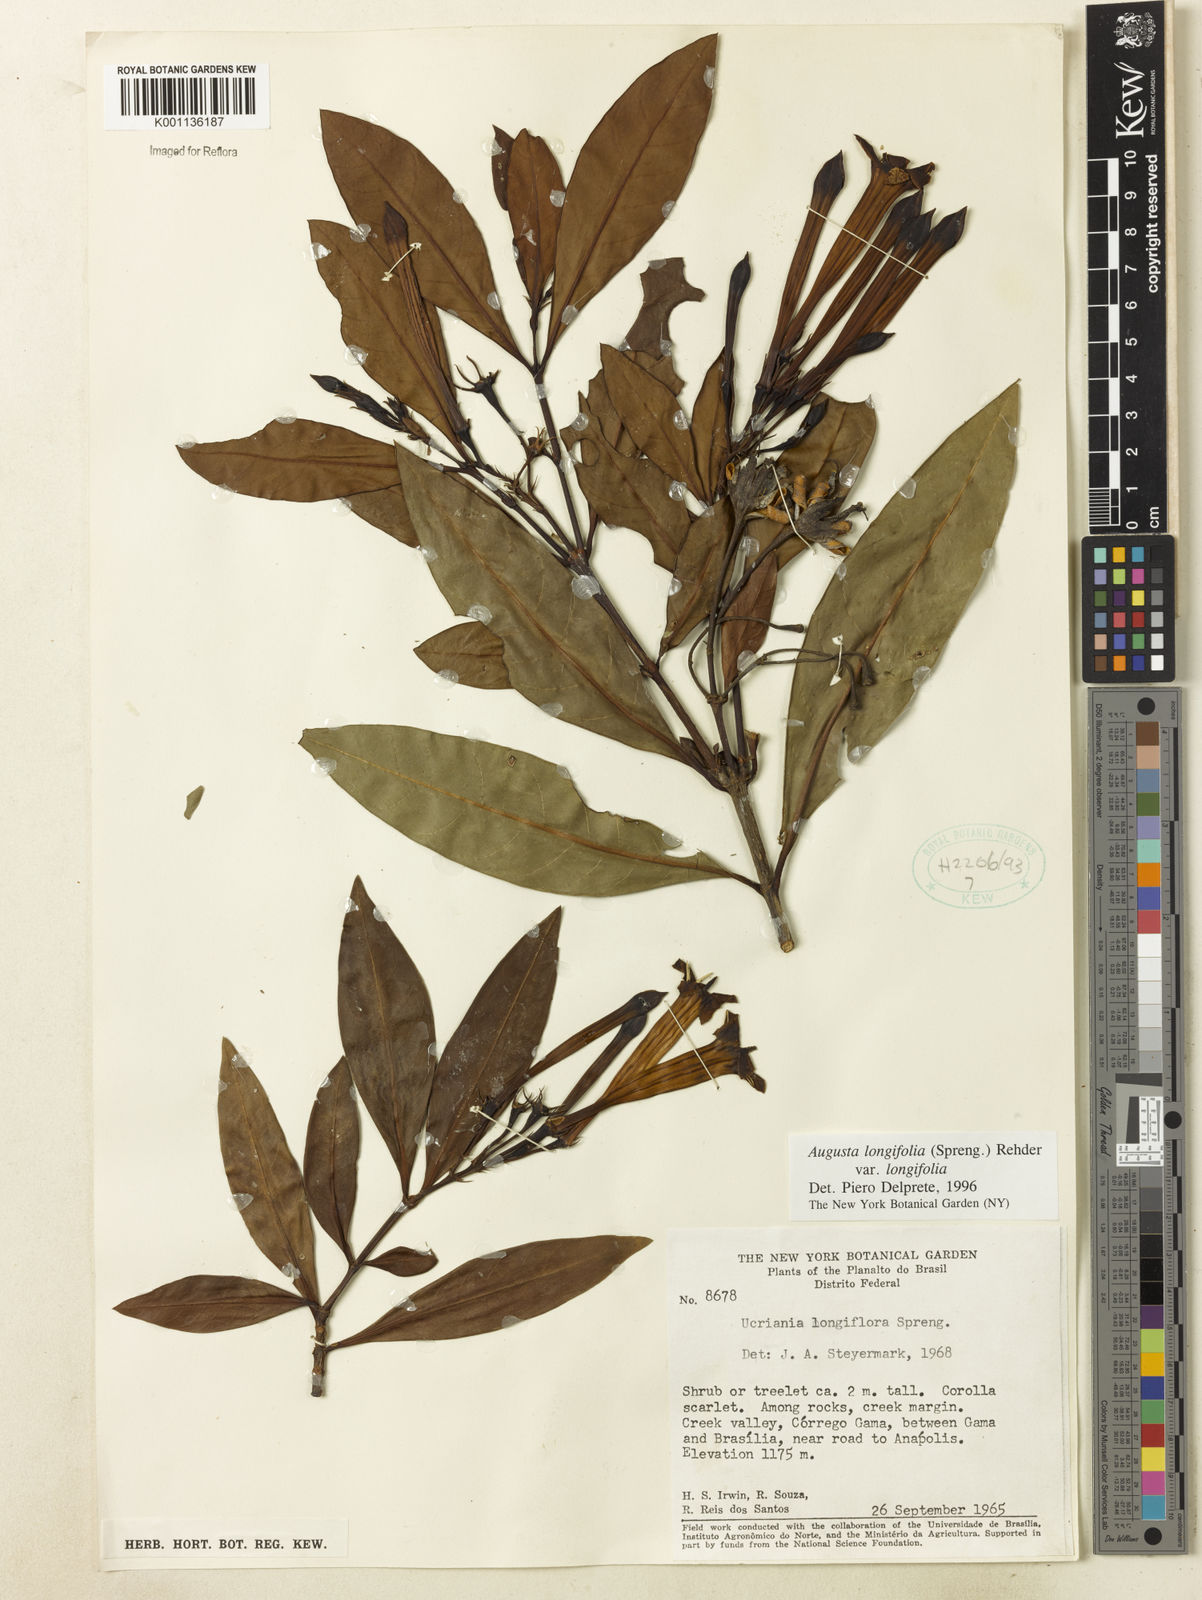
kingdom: Plantae
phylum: Tracheophyta
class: Magnoliopsida
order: Gentianales
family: Rubiaceae
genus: Augusta
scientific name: Augusta longifolia
